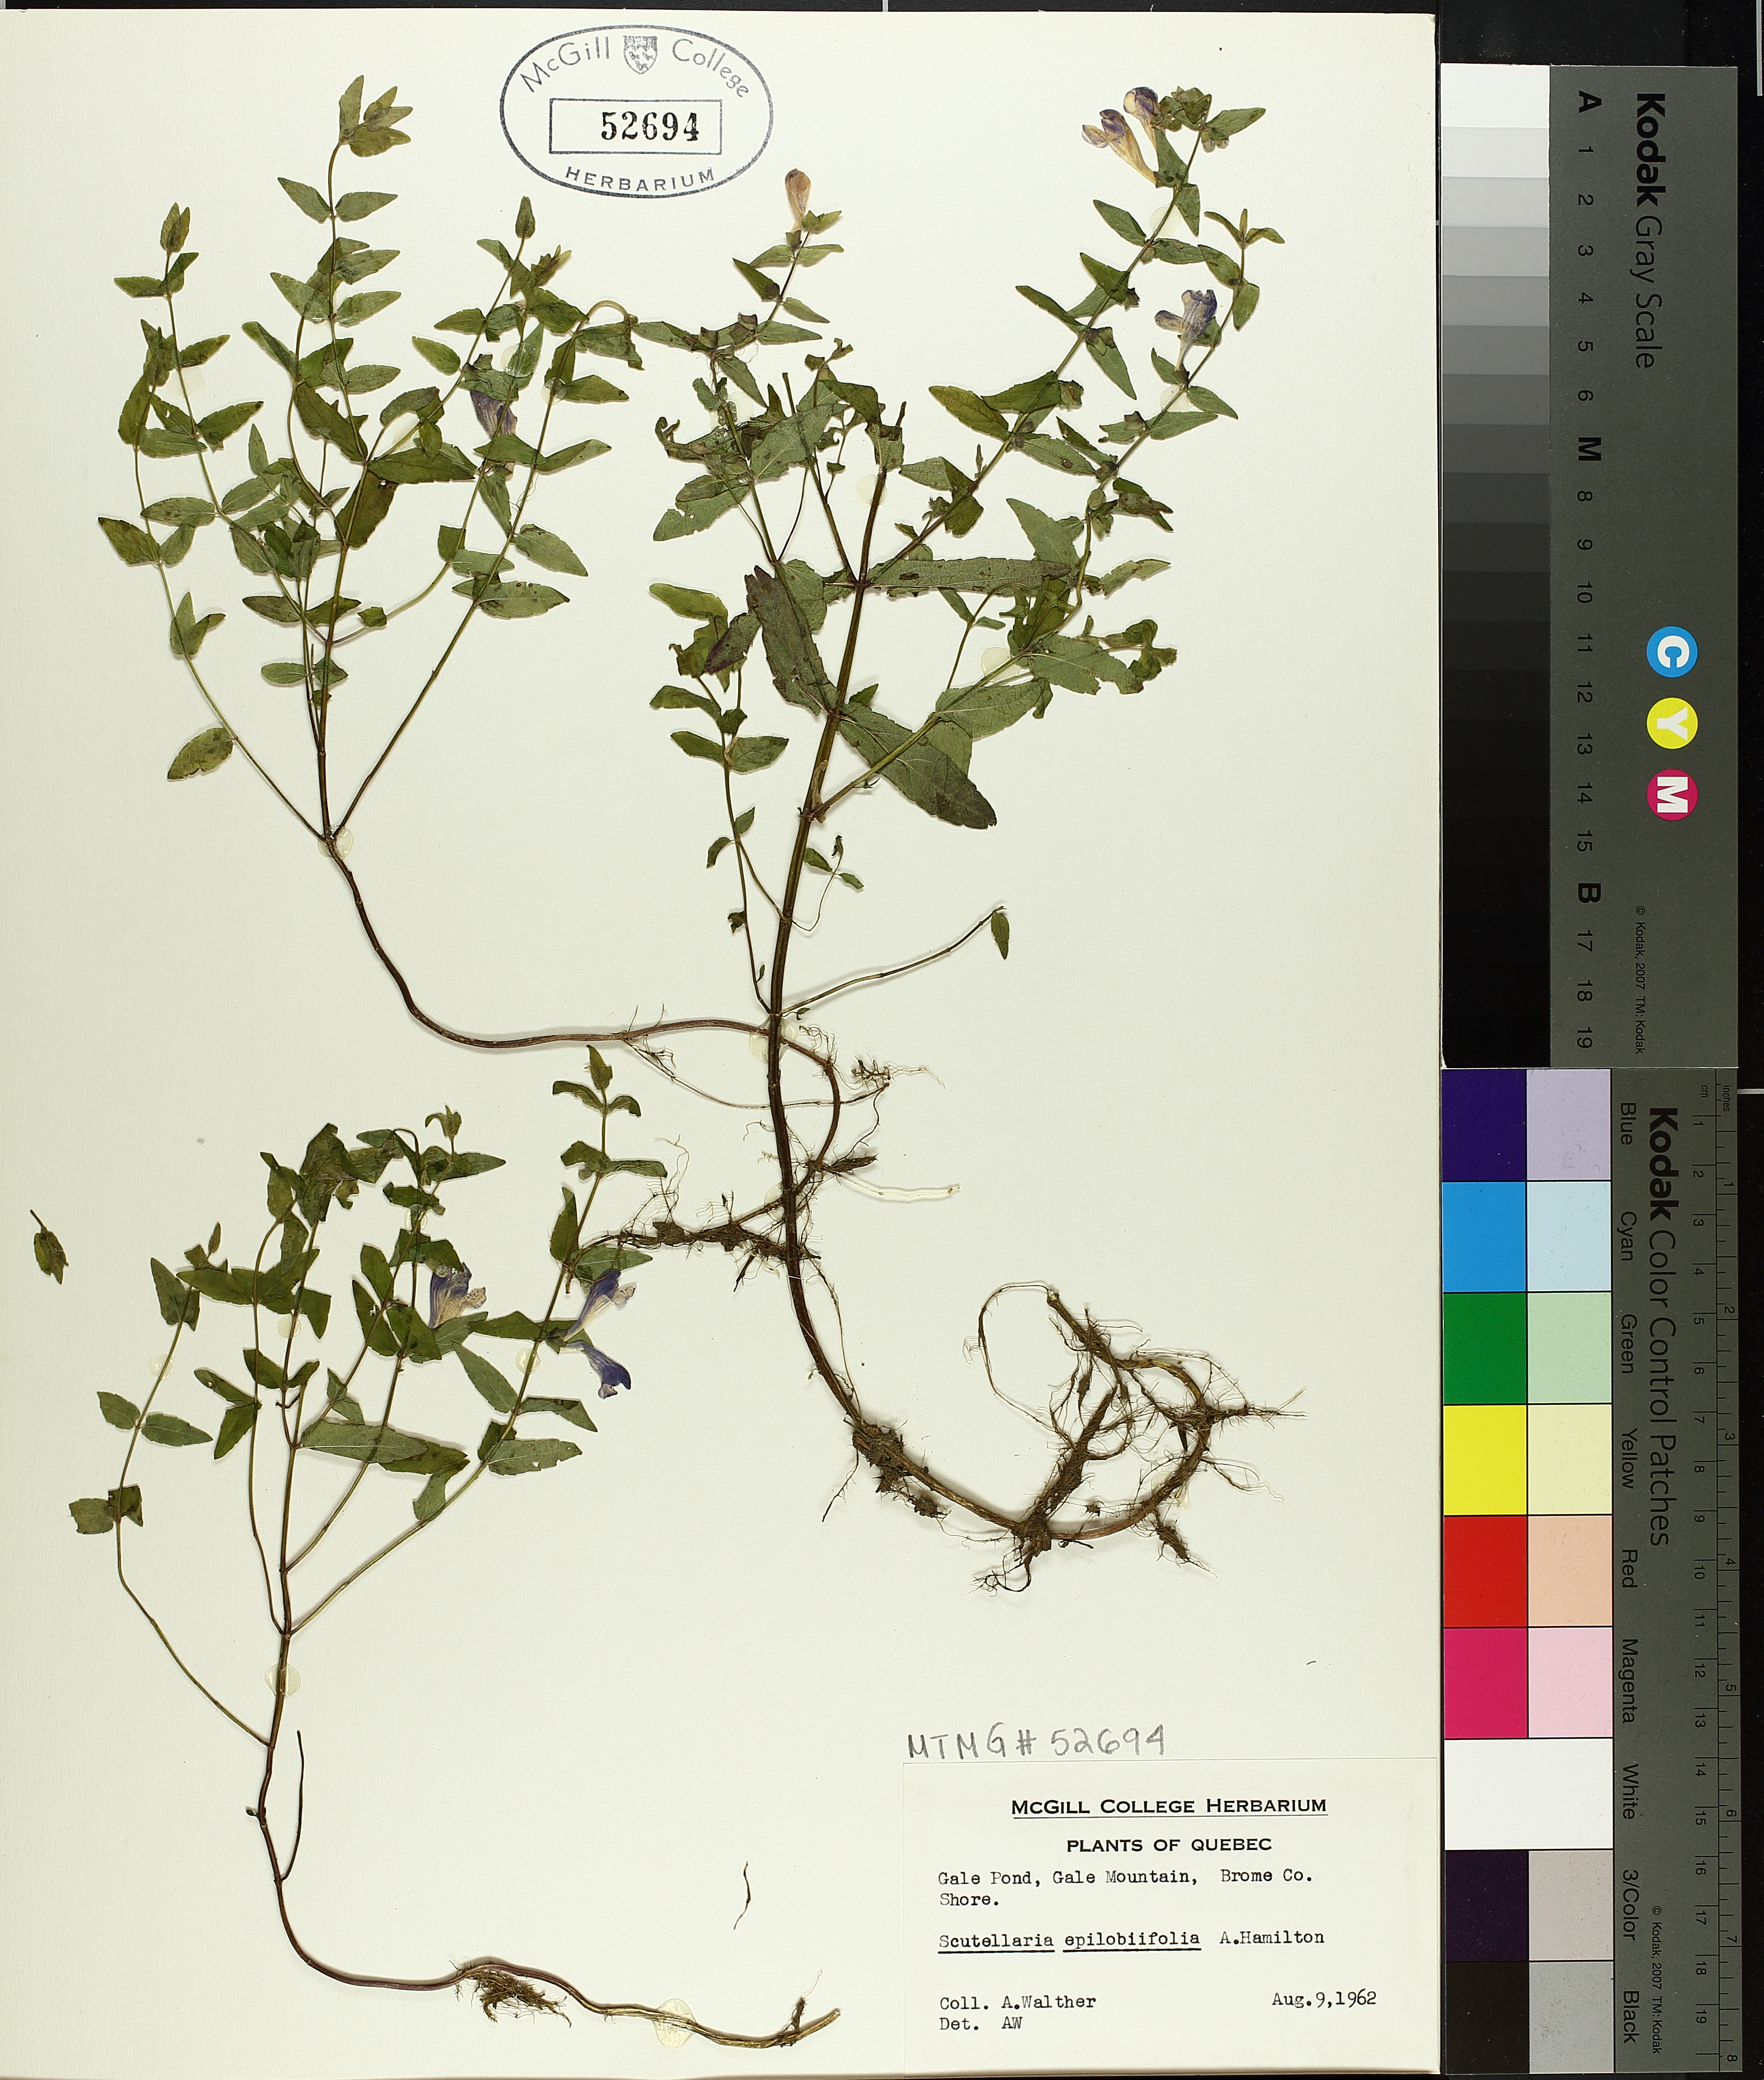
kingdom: Plantae
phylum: Tracheophyta
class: Magnoliopsida
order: Lamiales
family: Lamiaceae
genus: Scutellaria
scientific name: Scutellaria galericulata
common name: Skullcap
